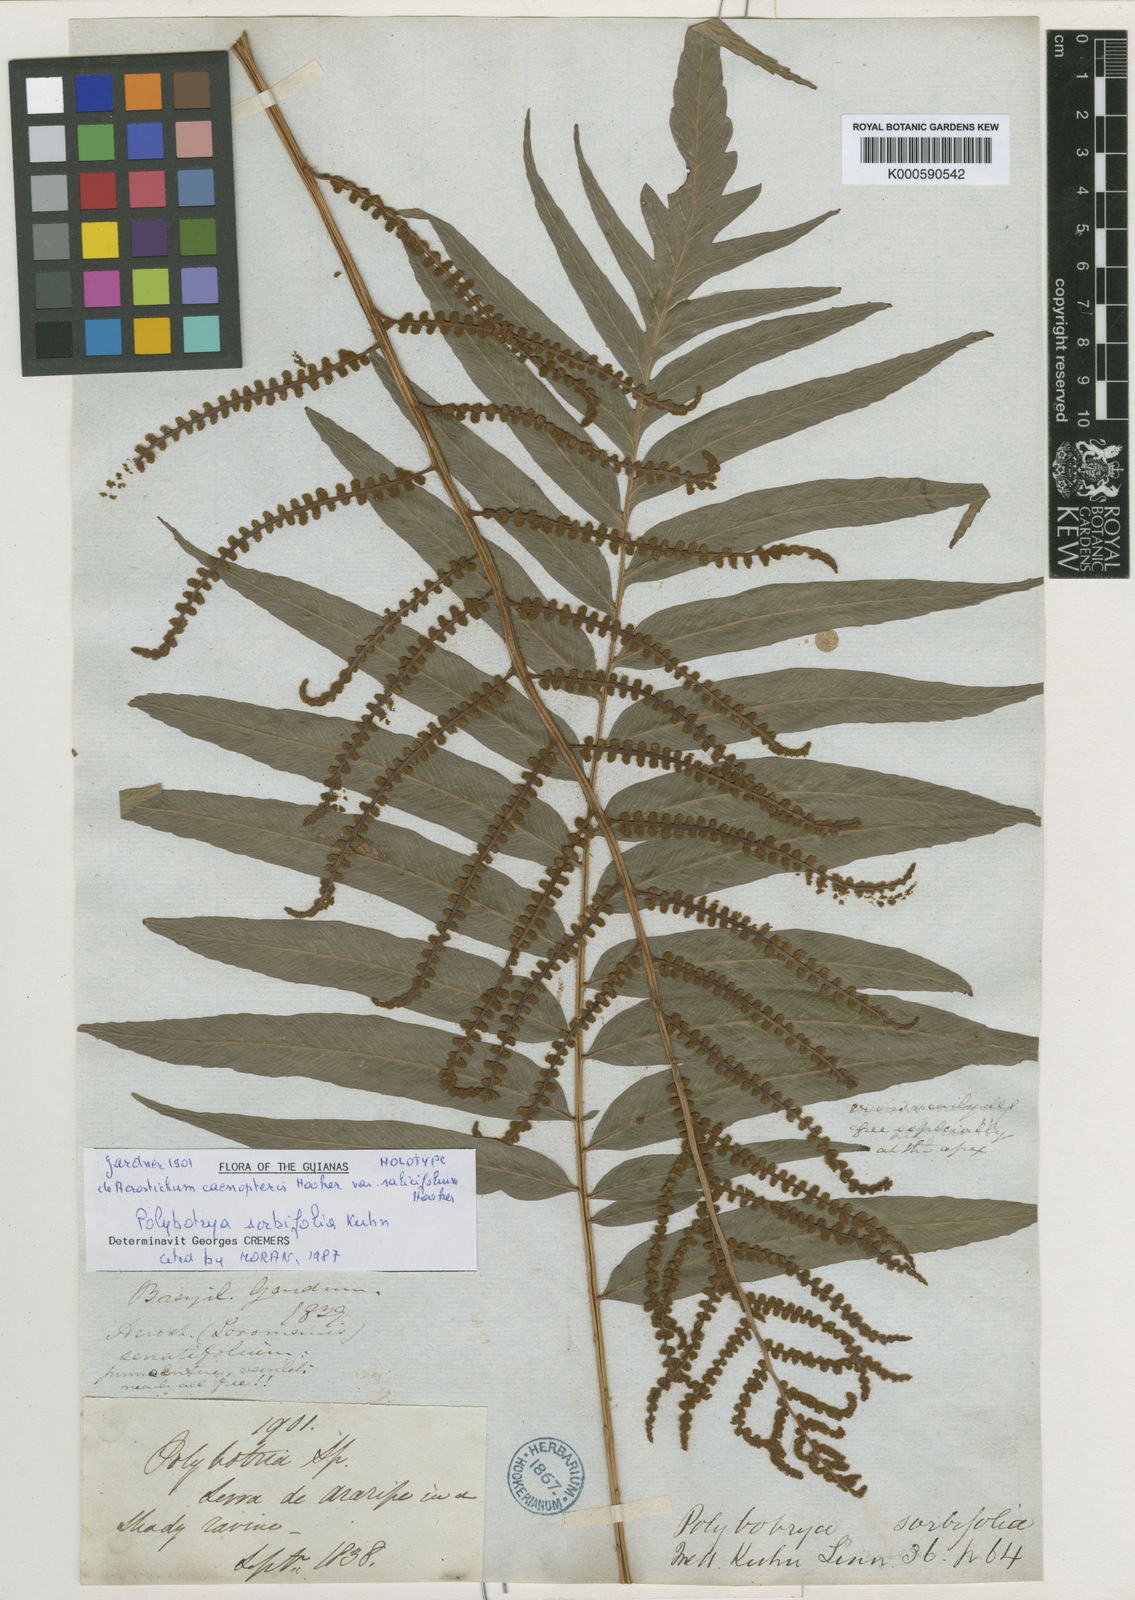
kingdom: Plantae
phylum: Tracheophyta
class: Polypodiopsida
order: Polypodiales
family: Dryopteridaceae
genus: Polybotrya
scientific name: Polybotrya sorbifolia
